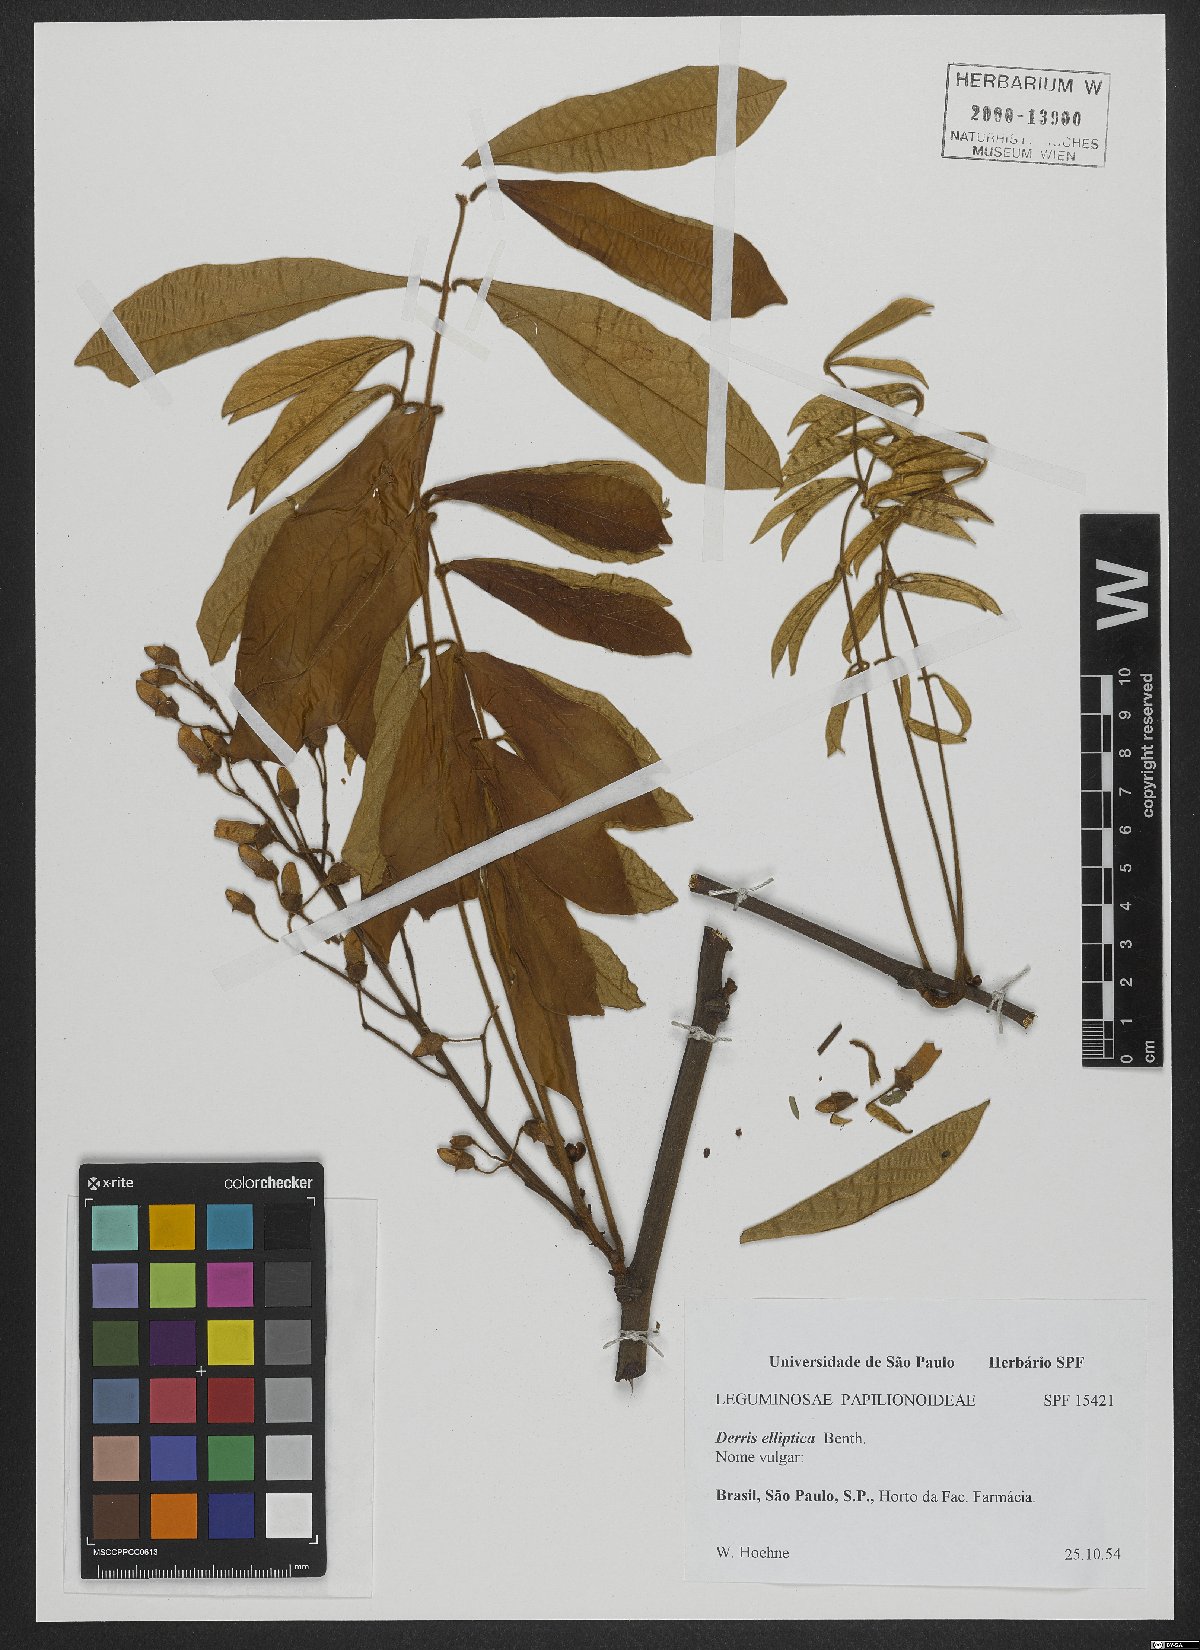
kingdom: Plantae
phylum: Tracheophyta
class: Magnoliopsida
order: Fabales
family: Fabaceae
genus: Derris
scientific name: Derris elliptica
